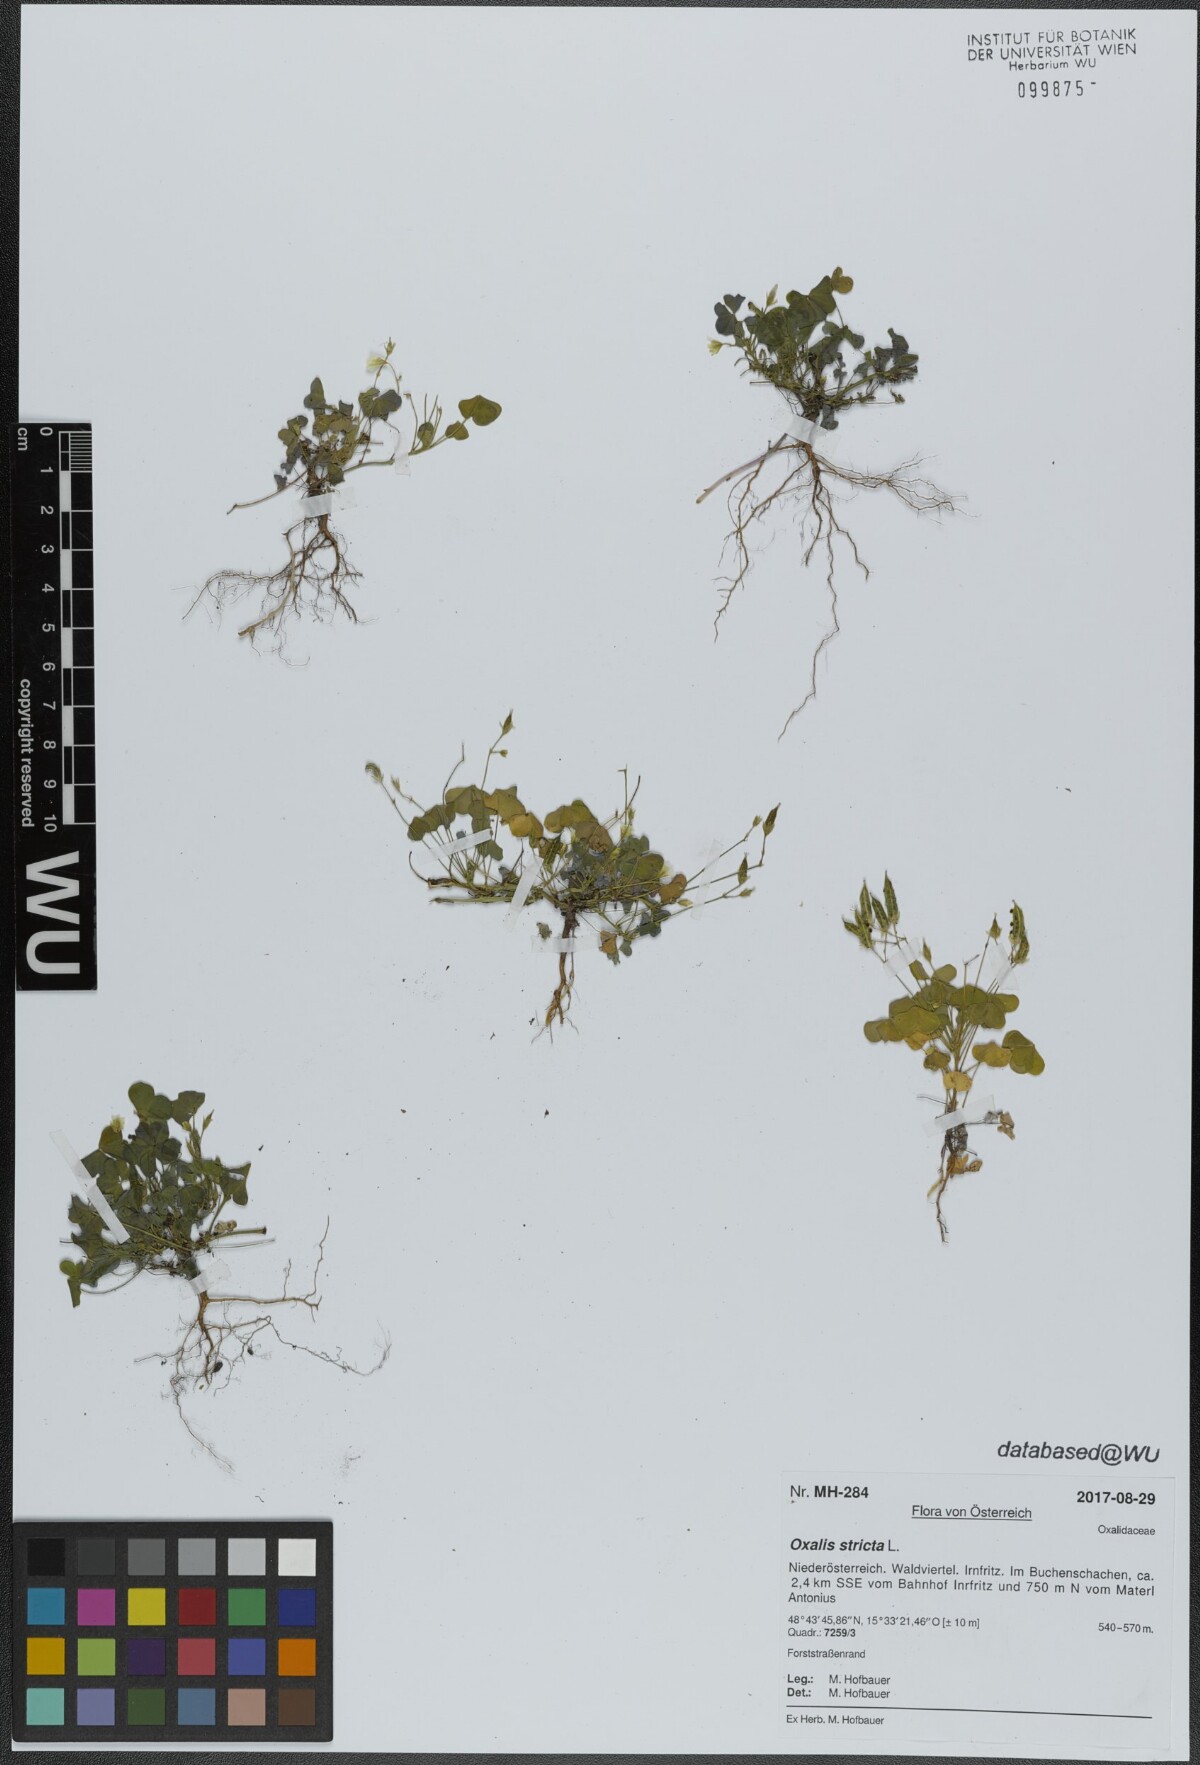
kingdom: Plantae
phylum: Tracheophyta
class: Magnoliopsida
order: Oxalidales
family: Oxalidaceae
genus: Oxalis
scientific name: Oxalis stricta
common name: Upright yellow-sorrel
